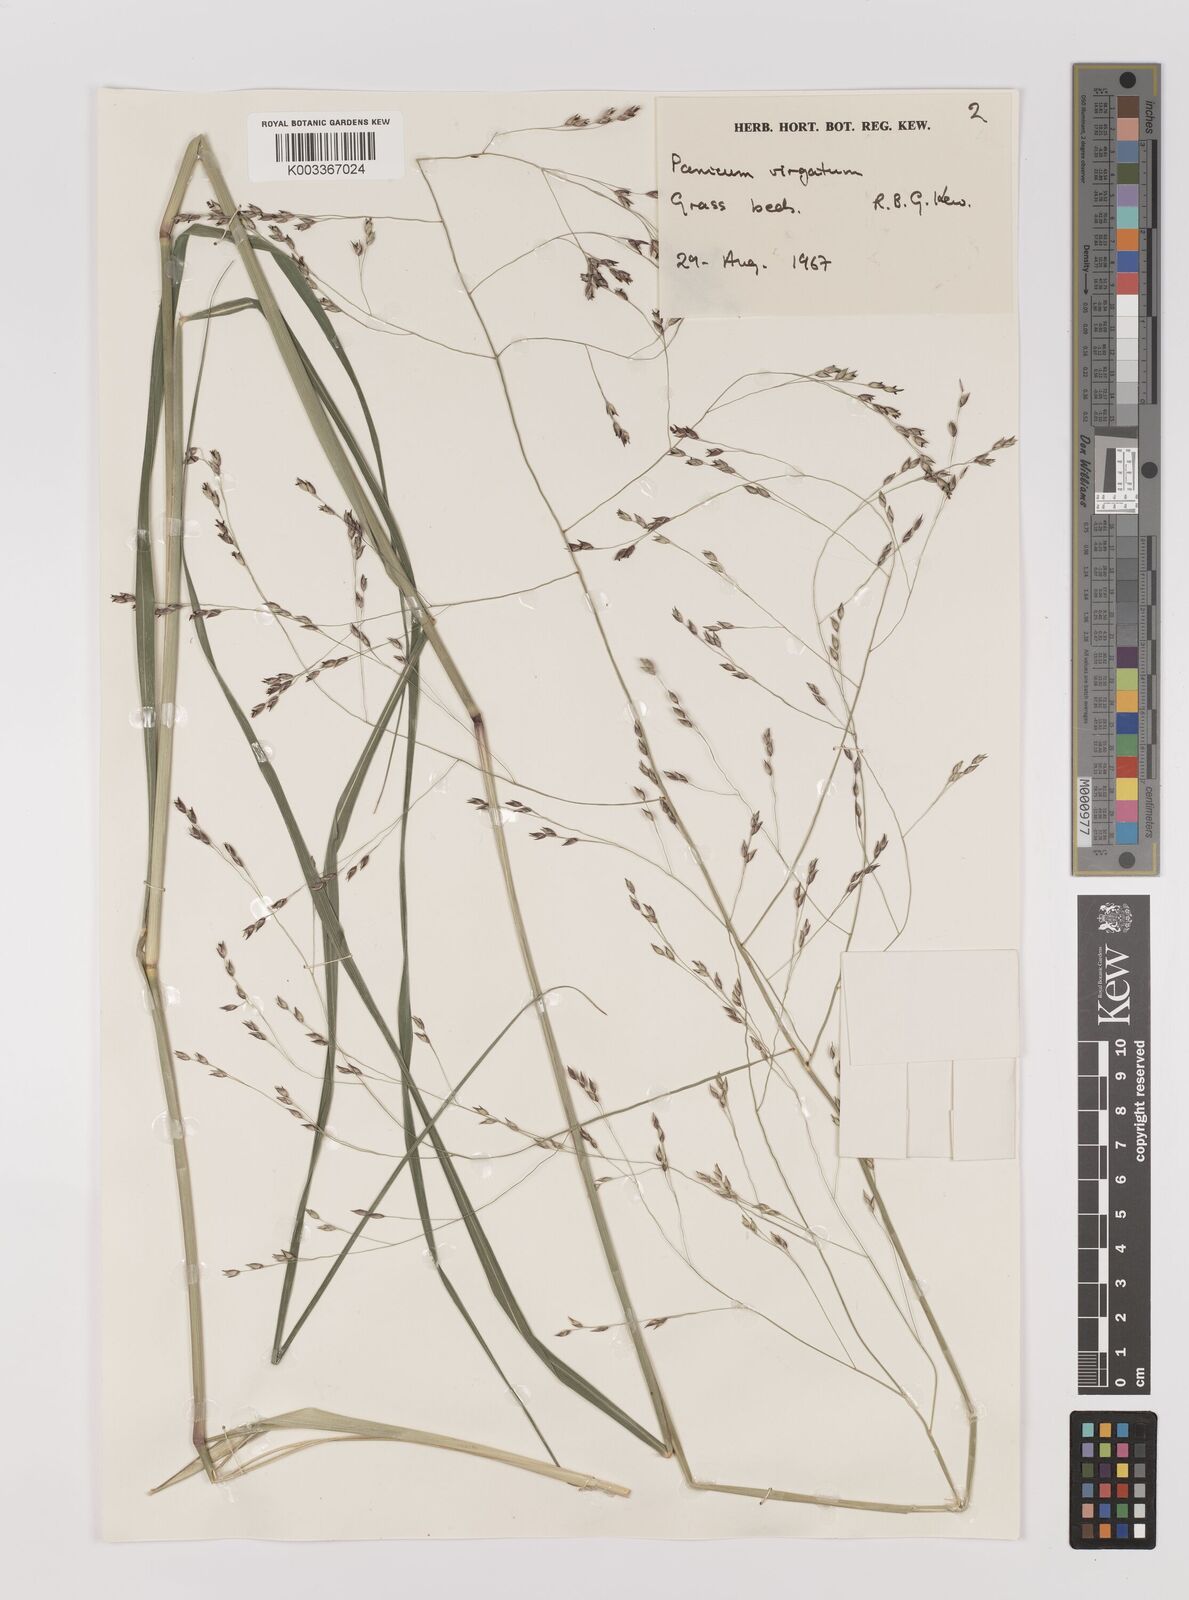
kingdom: Plantae
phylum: Tracheophyta
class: Liliopsida
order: Poales
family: Poaceae
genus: Panicum
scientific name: Panicum virgatum
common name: Switchgrass
